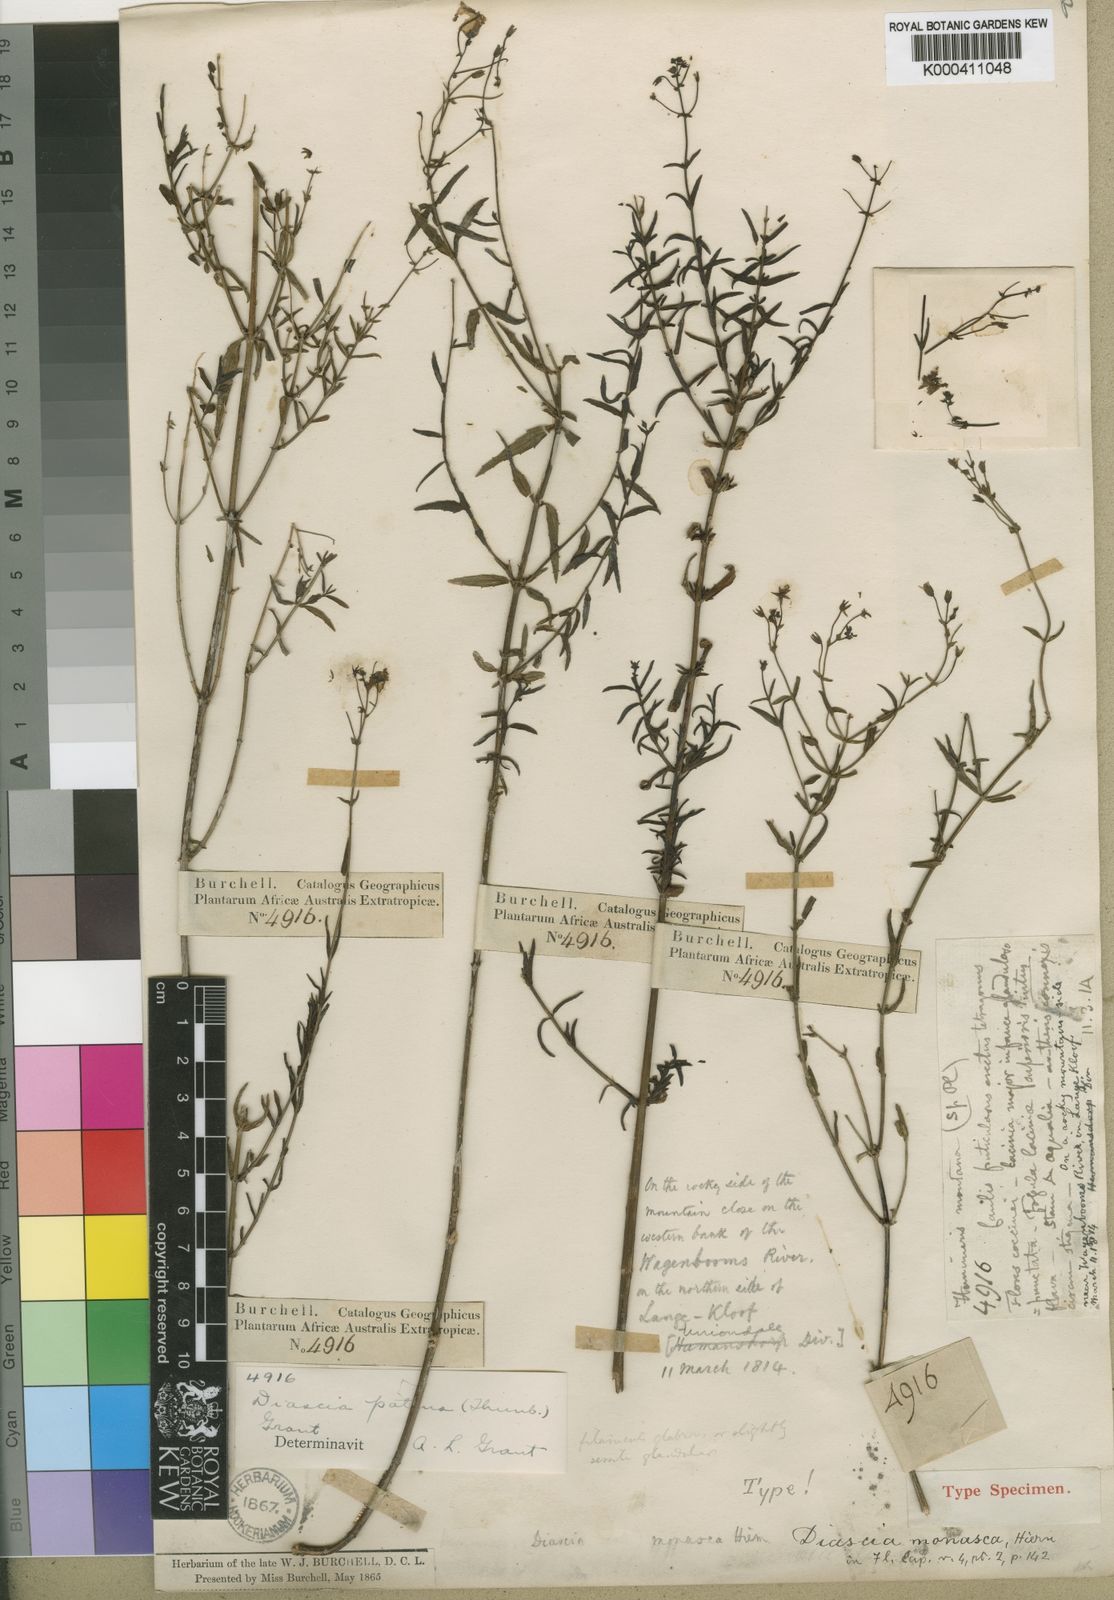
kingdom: Plantae
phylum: Tracheophyta
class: Magnoliopsida
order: Lamiales
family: Scrophulariaceae
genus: Diascia
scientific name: Diascia patens
